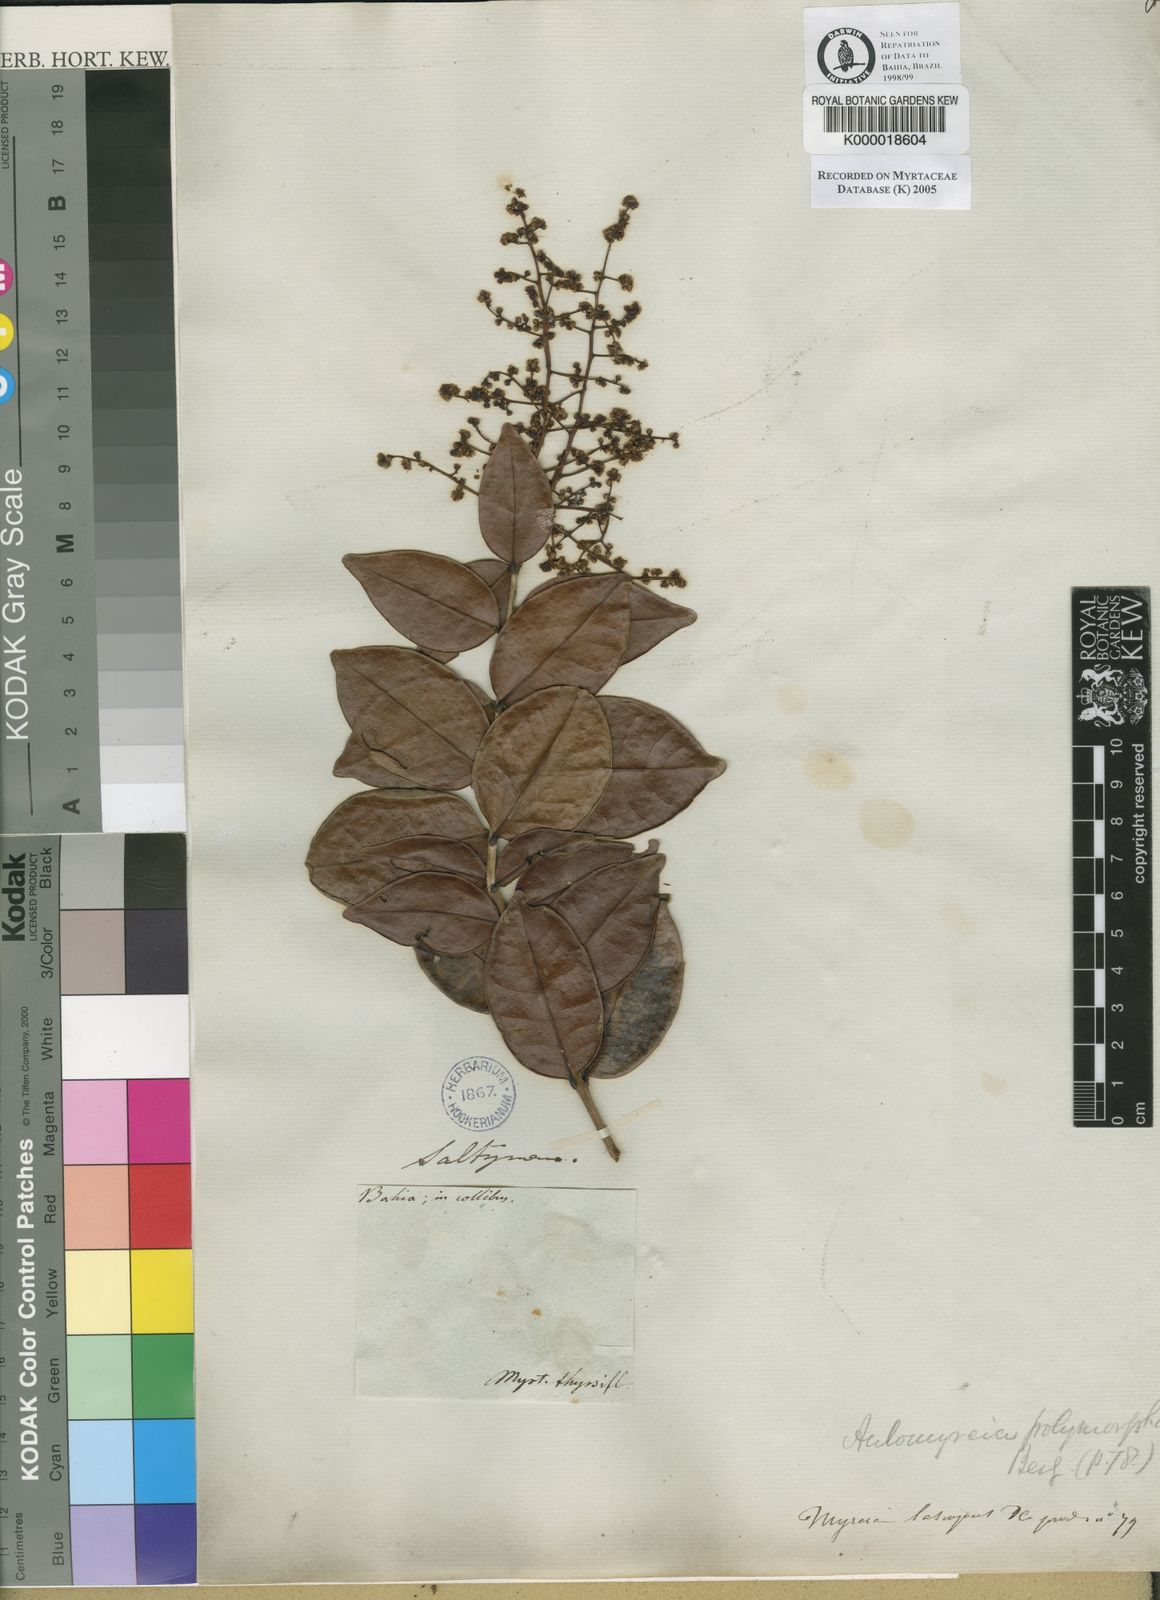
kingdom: Plantae
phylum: Tracheophyta
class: Magnoliopsida
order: Myrtales
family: Myrtaceae
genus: Myrcia
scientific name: Myrcia decorticans
